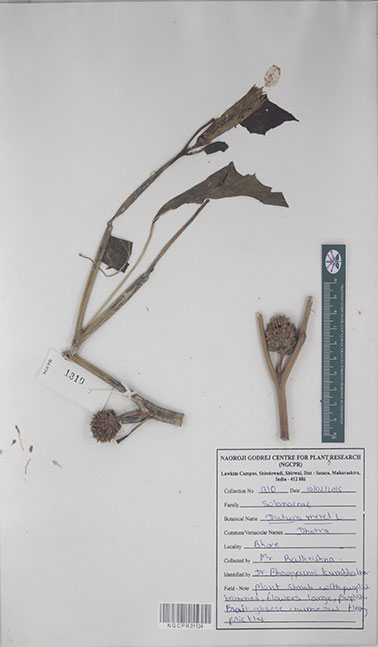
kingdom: Plantae
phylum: Tracheophyta
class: Magnoliopsida
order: Solanales
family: Solanaceae
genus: Datura
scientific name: Datura metel
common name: Jimsonweed
